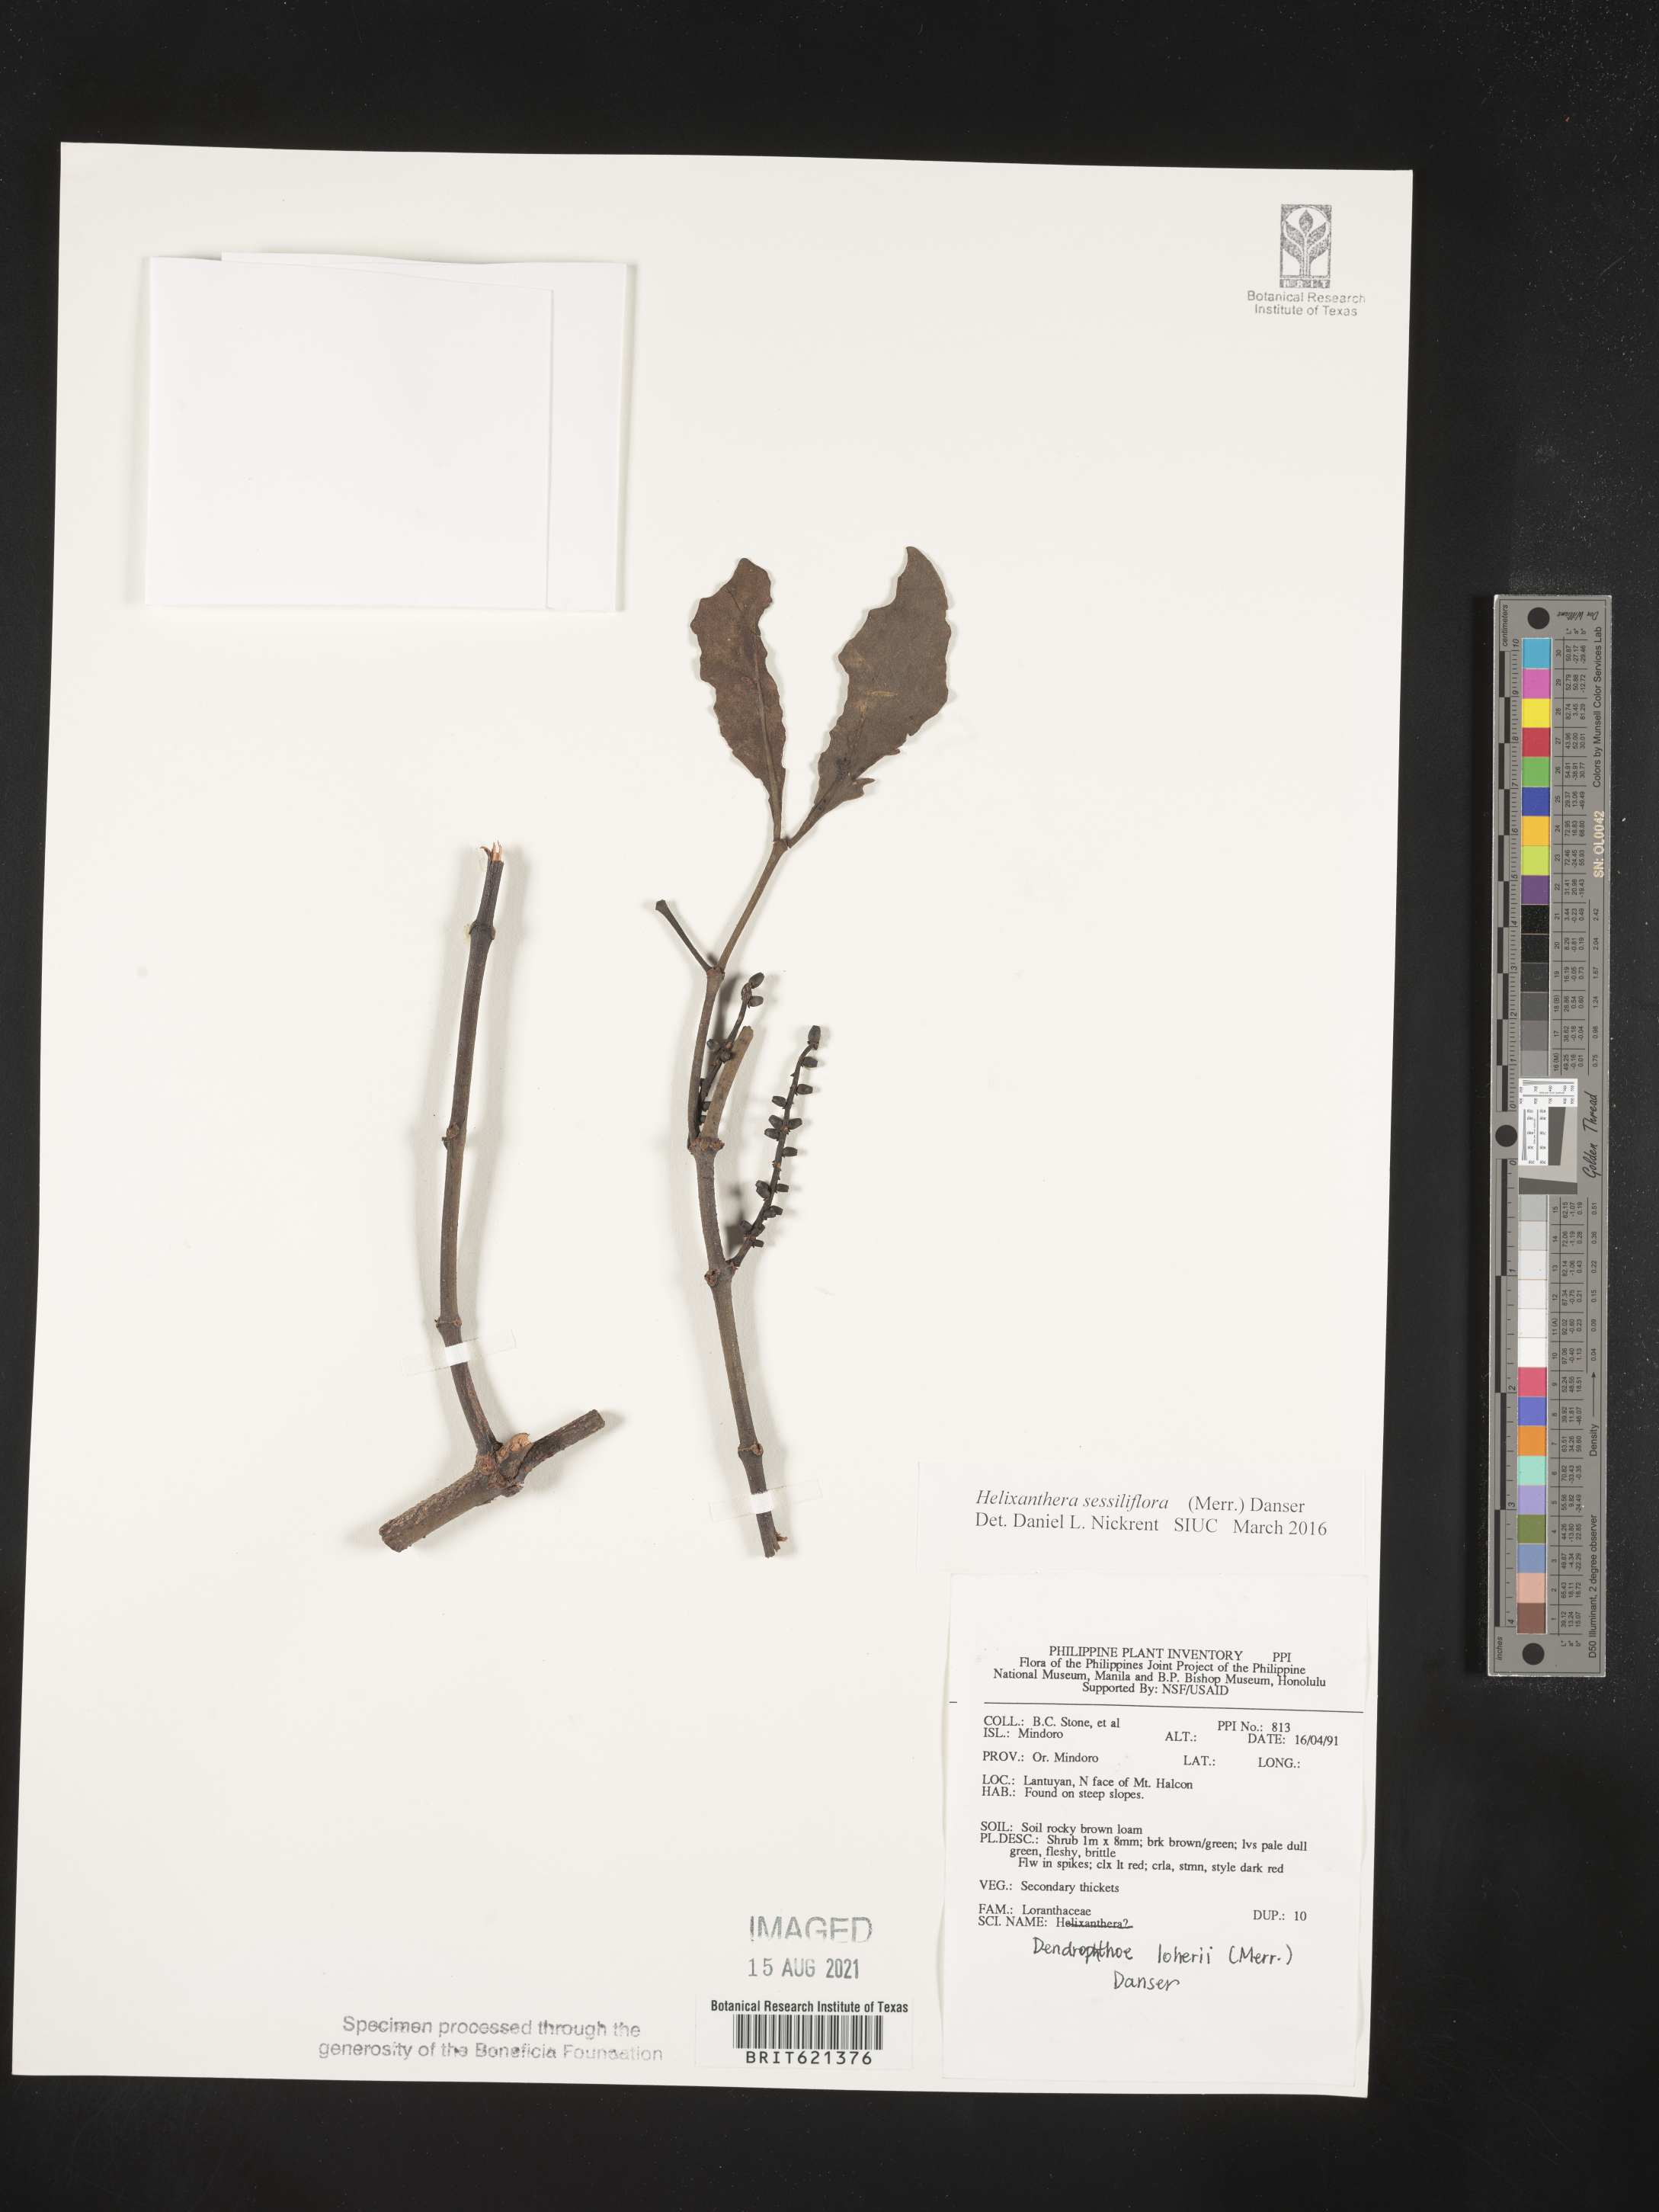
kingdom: Plantae
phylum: Tracheophyta
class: Magnoliopsida
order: Santalales
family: Loranthaceae
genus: Helixanthera
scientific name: Helixanthera sessiliflora
